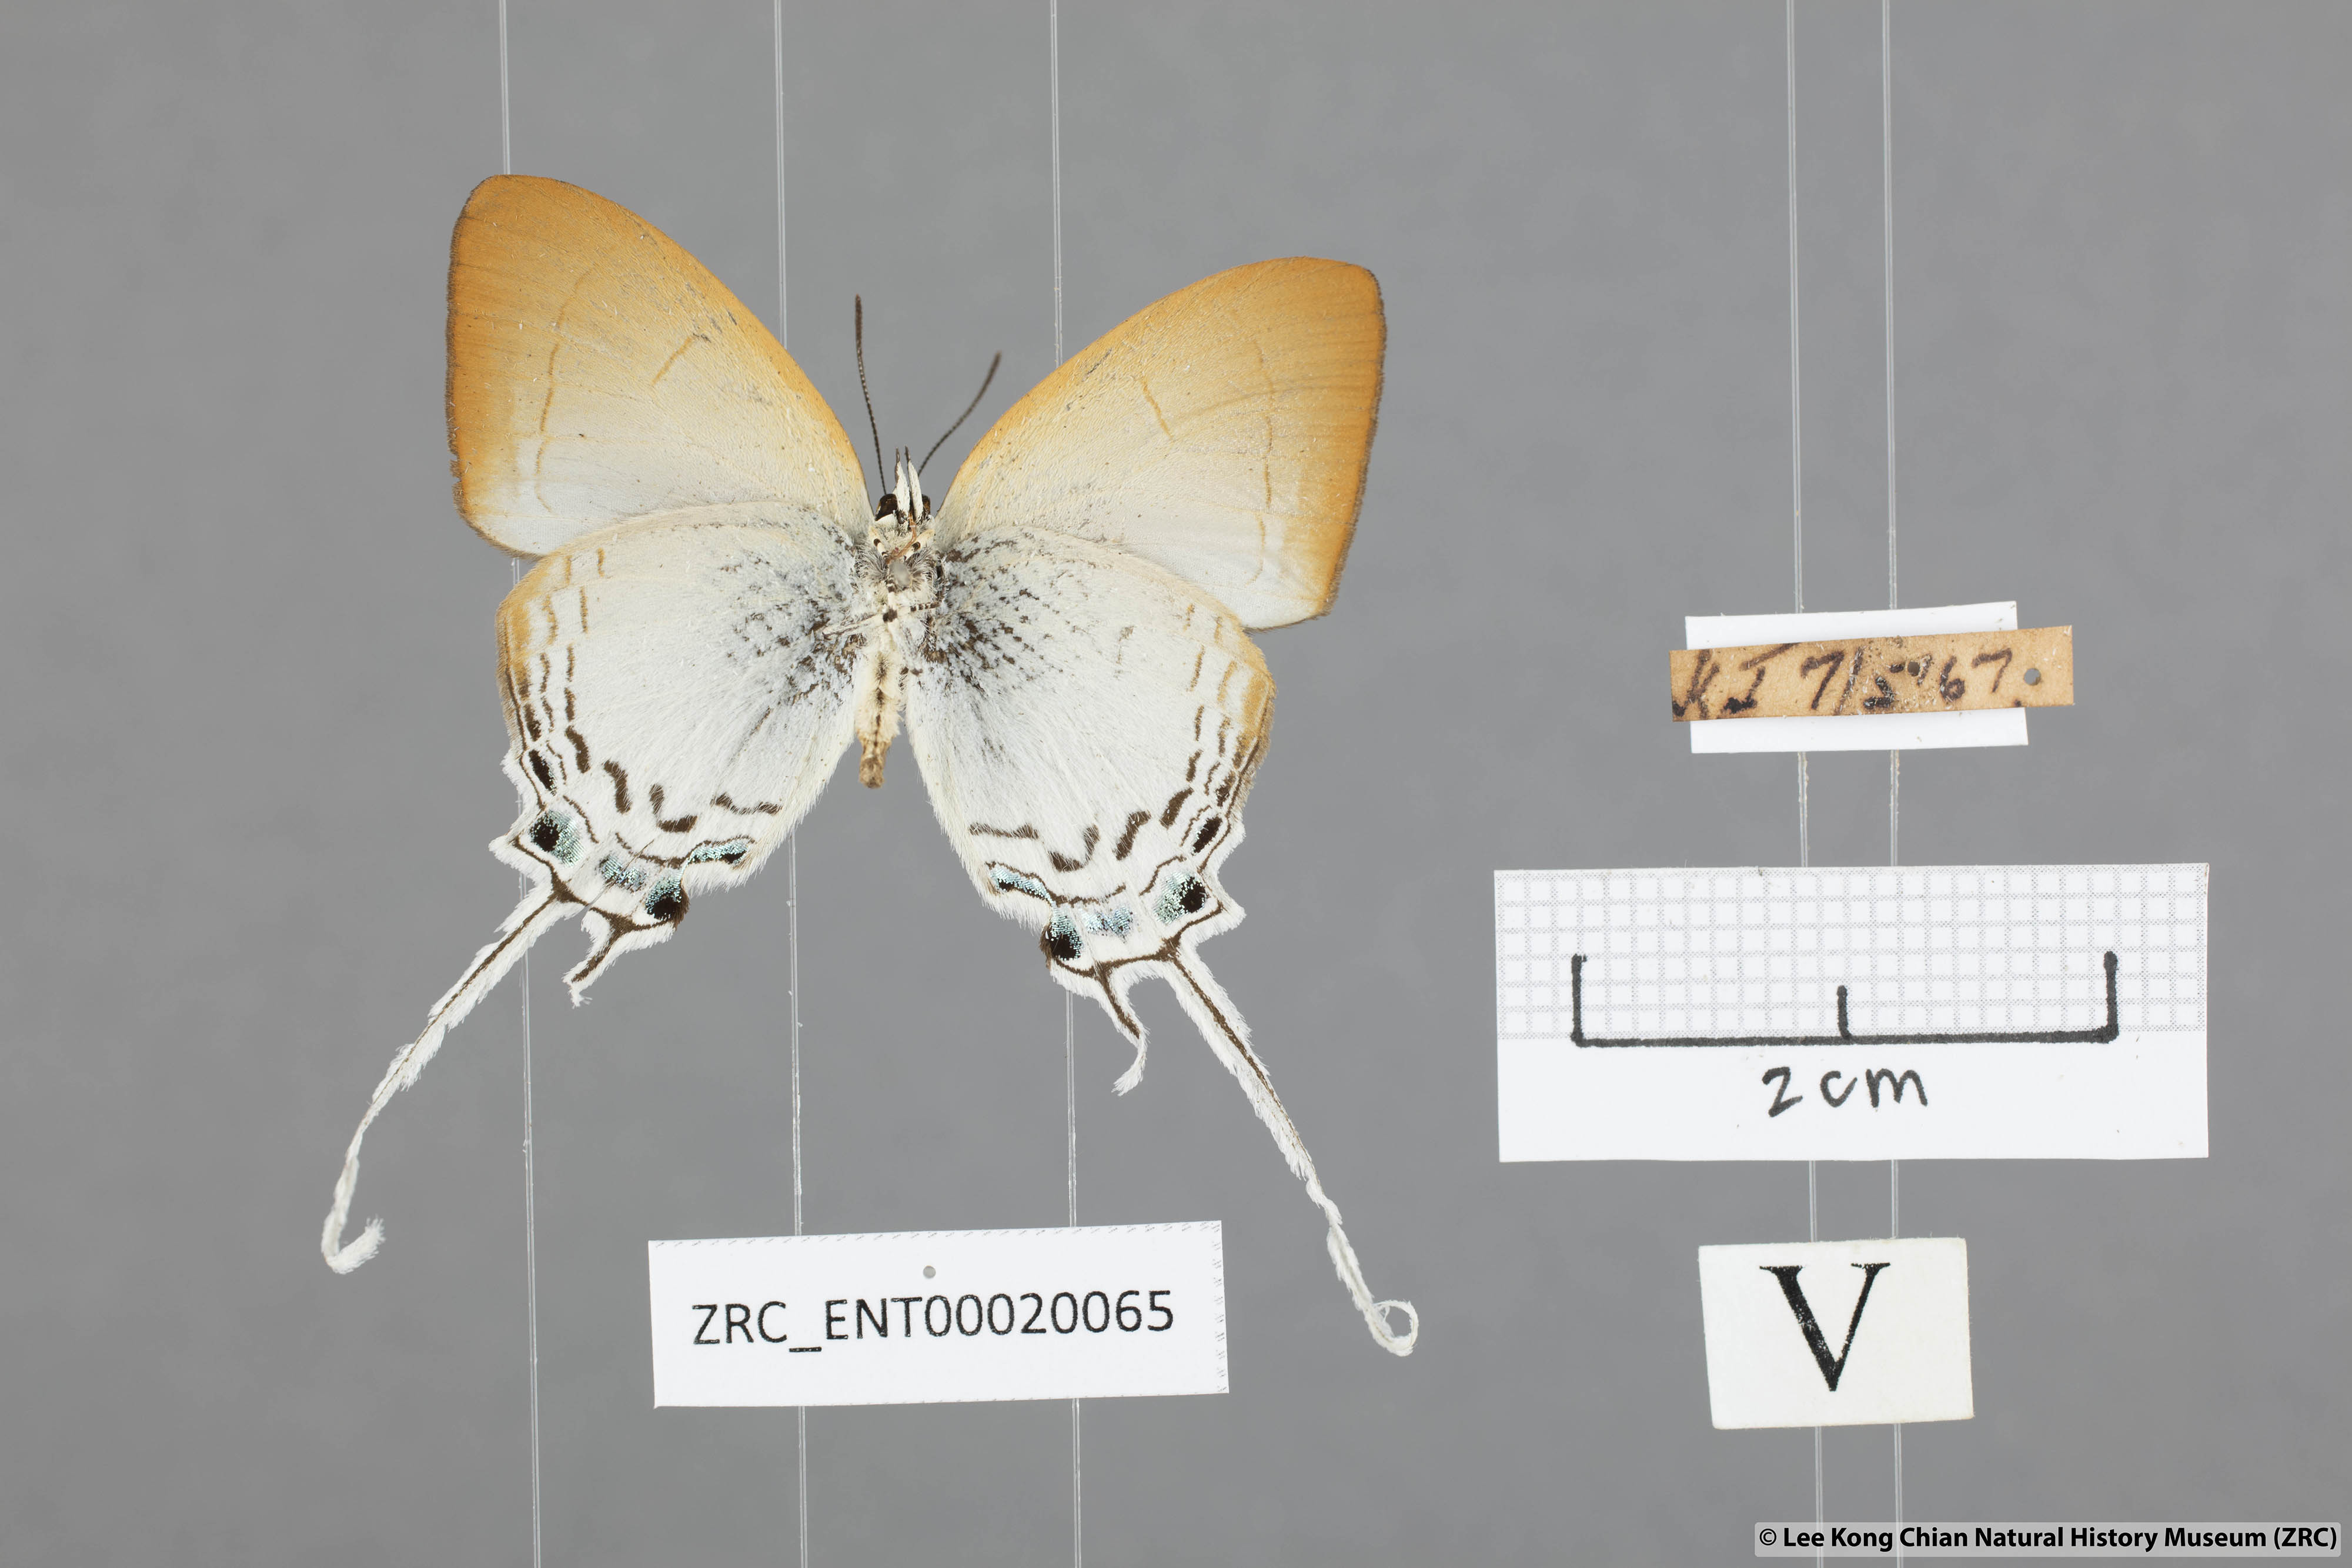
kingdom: Animalia
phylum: Arthropoda
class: Insecta
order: Lepidoptera
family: Lycaenidae
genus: Cheritra
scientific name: Cheritra freja
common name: Common imperial
